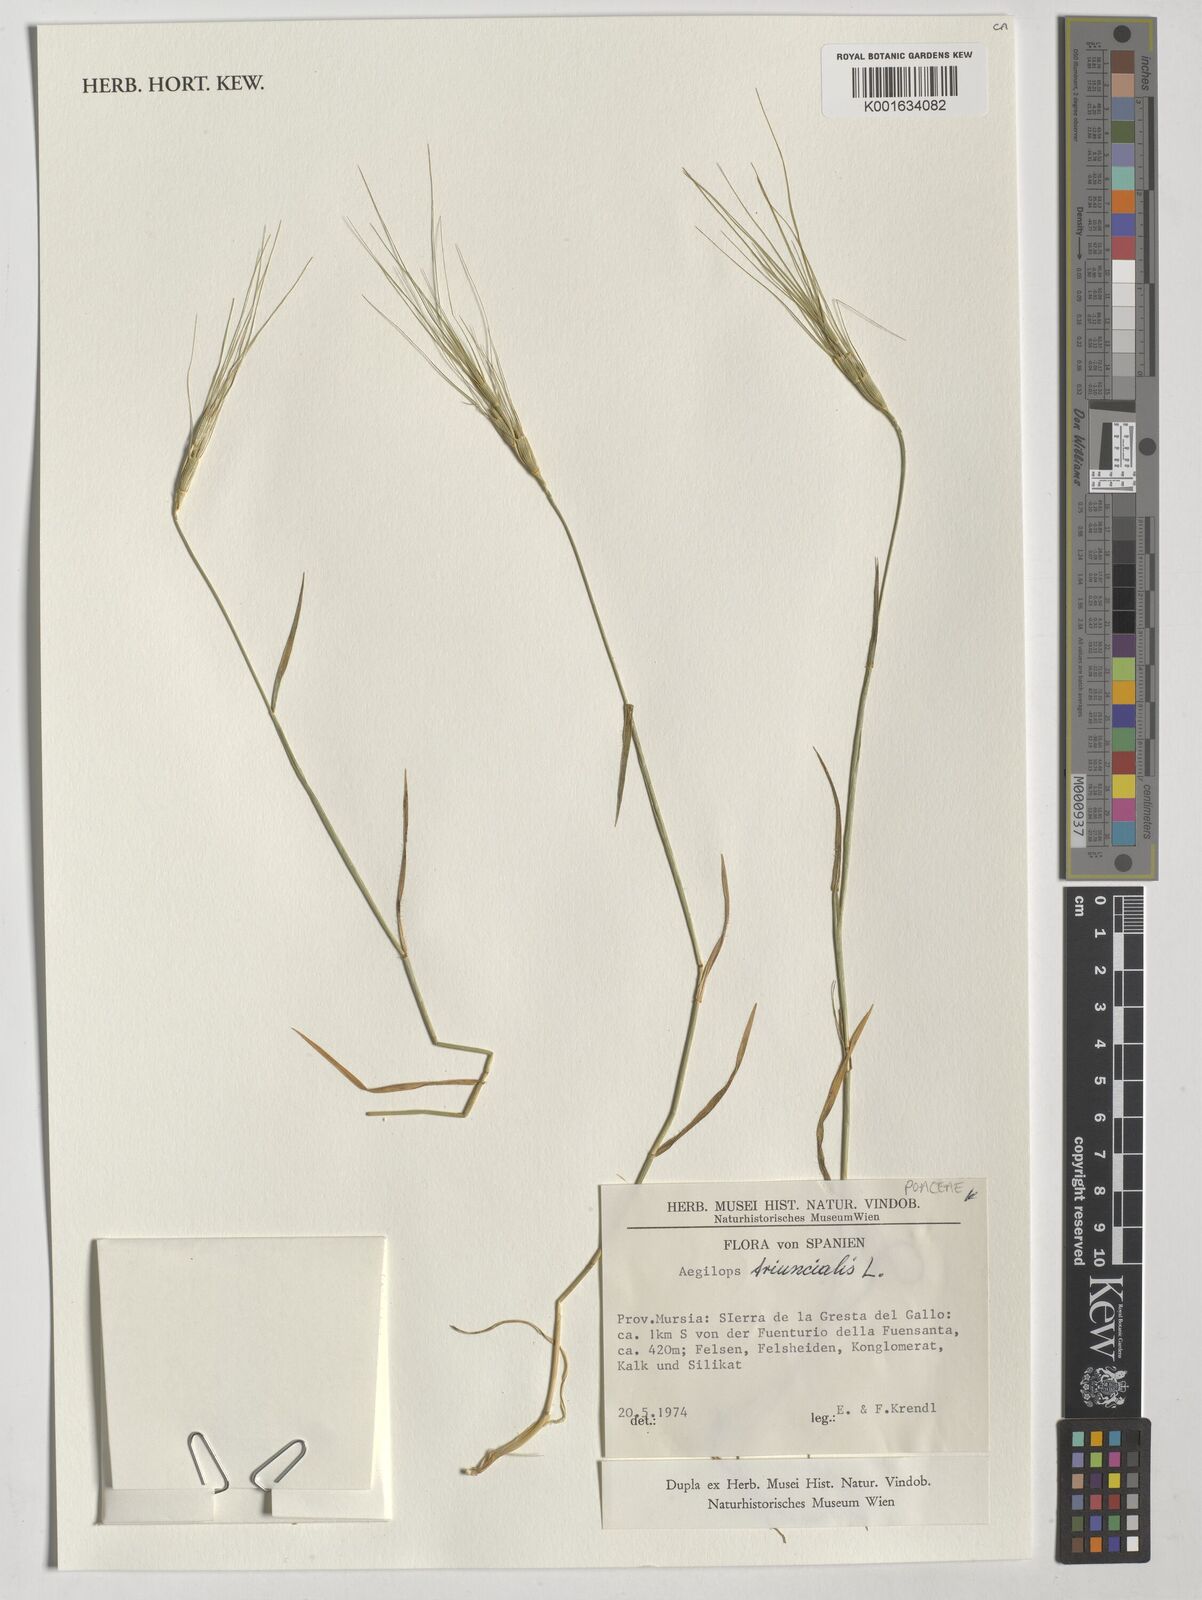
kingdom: Plantae
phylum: Tracheophyta
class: Liliopsida
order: Poales
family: Poaceae
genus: Aegilops
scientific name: Aegilops triuncialis
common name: Barb goat grass
